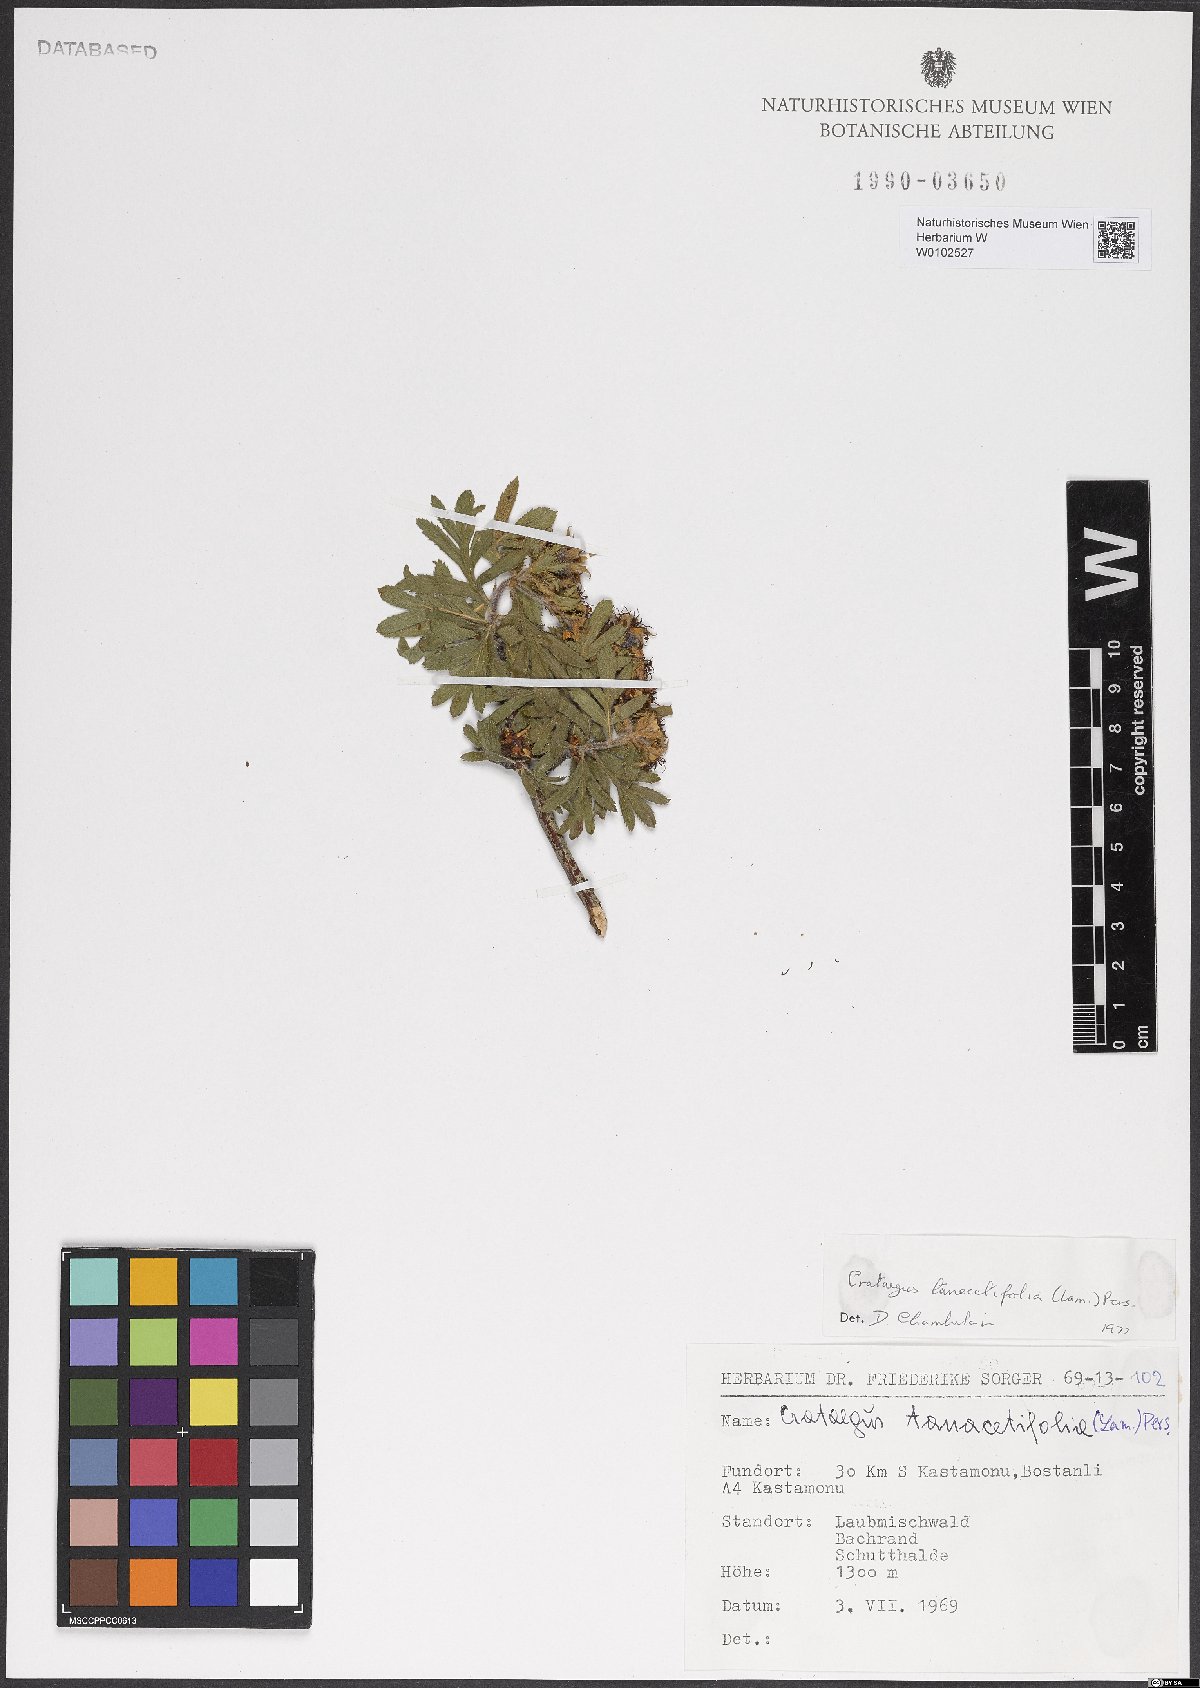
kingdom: Plantae
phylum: Tracheophyta
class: Magnoliopsida
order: Rosales
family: Rosaceae
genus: Crataegus
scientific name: Crataegus tanacetifolia
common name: Tansy-leaved thorn
